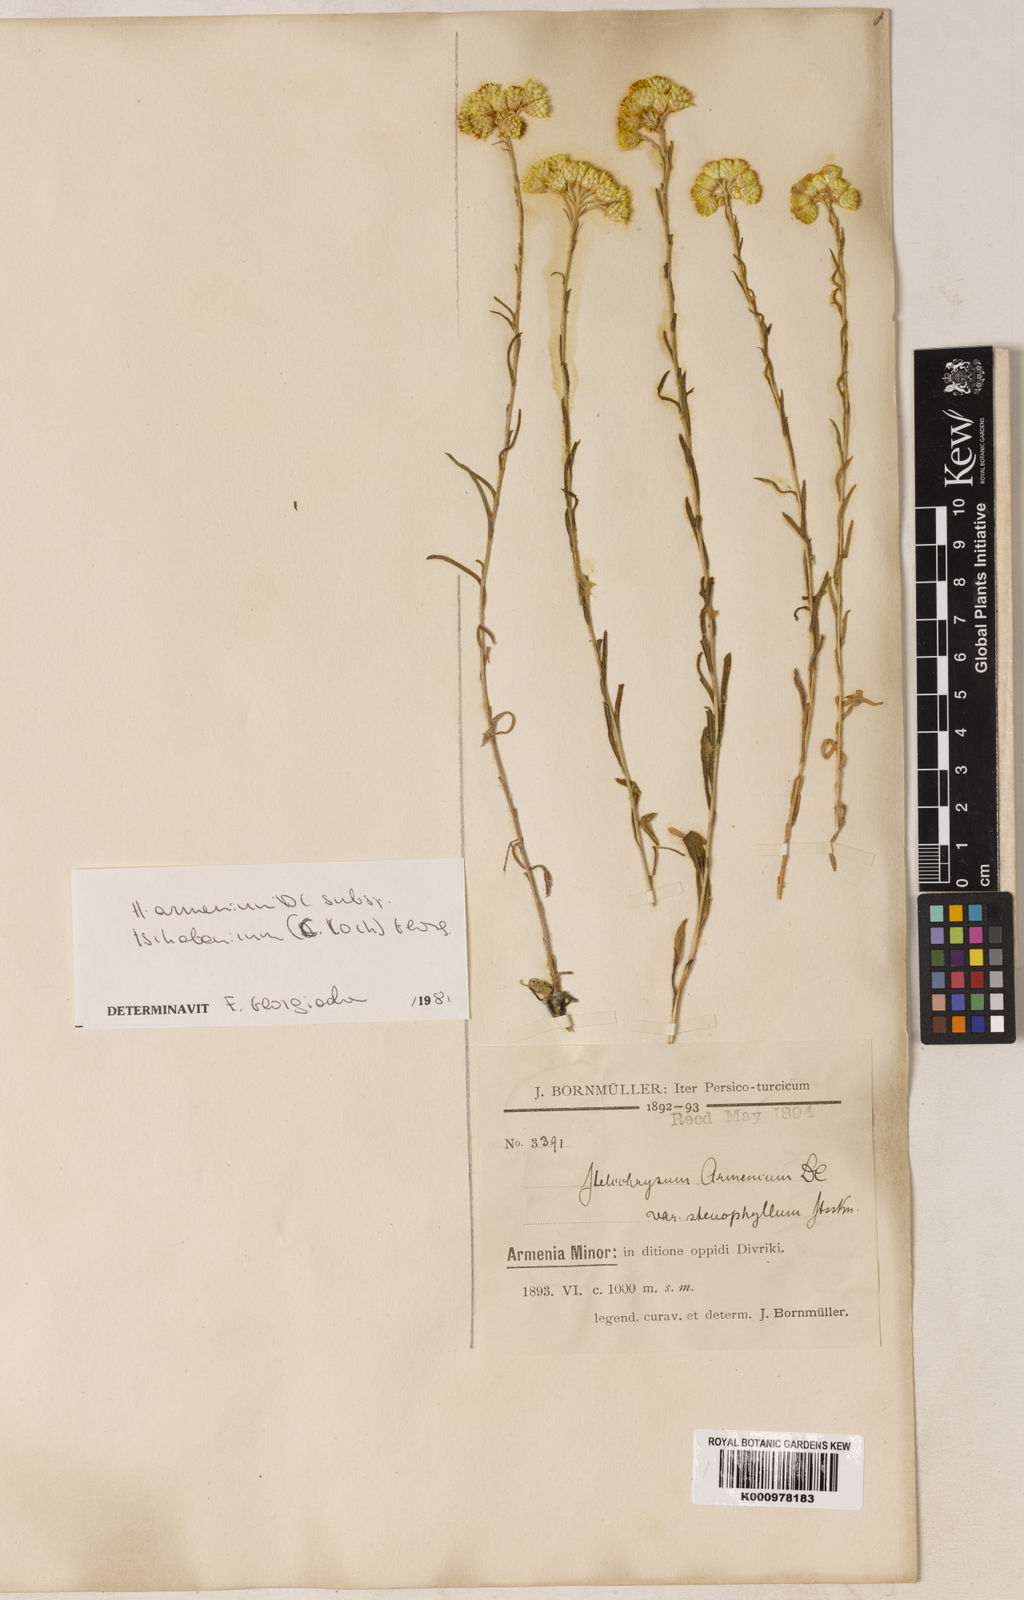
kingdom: Plantae
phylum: Tracheophyta
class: Magnoliopsida
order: Asterales
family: Asteraceae
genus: Helichrysum
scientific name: Helichrysum armenium
